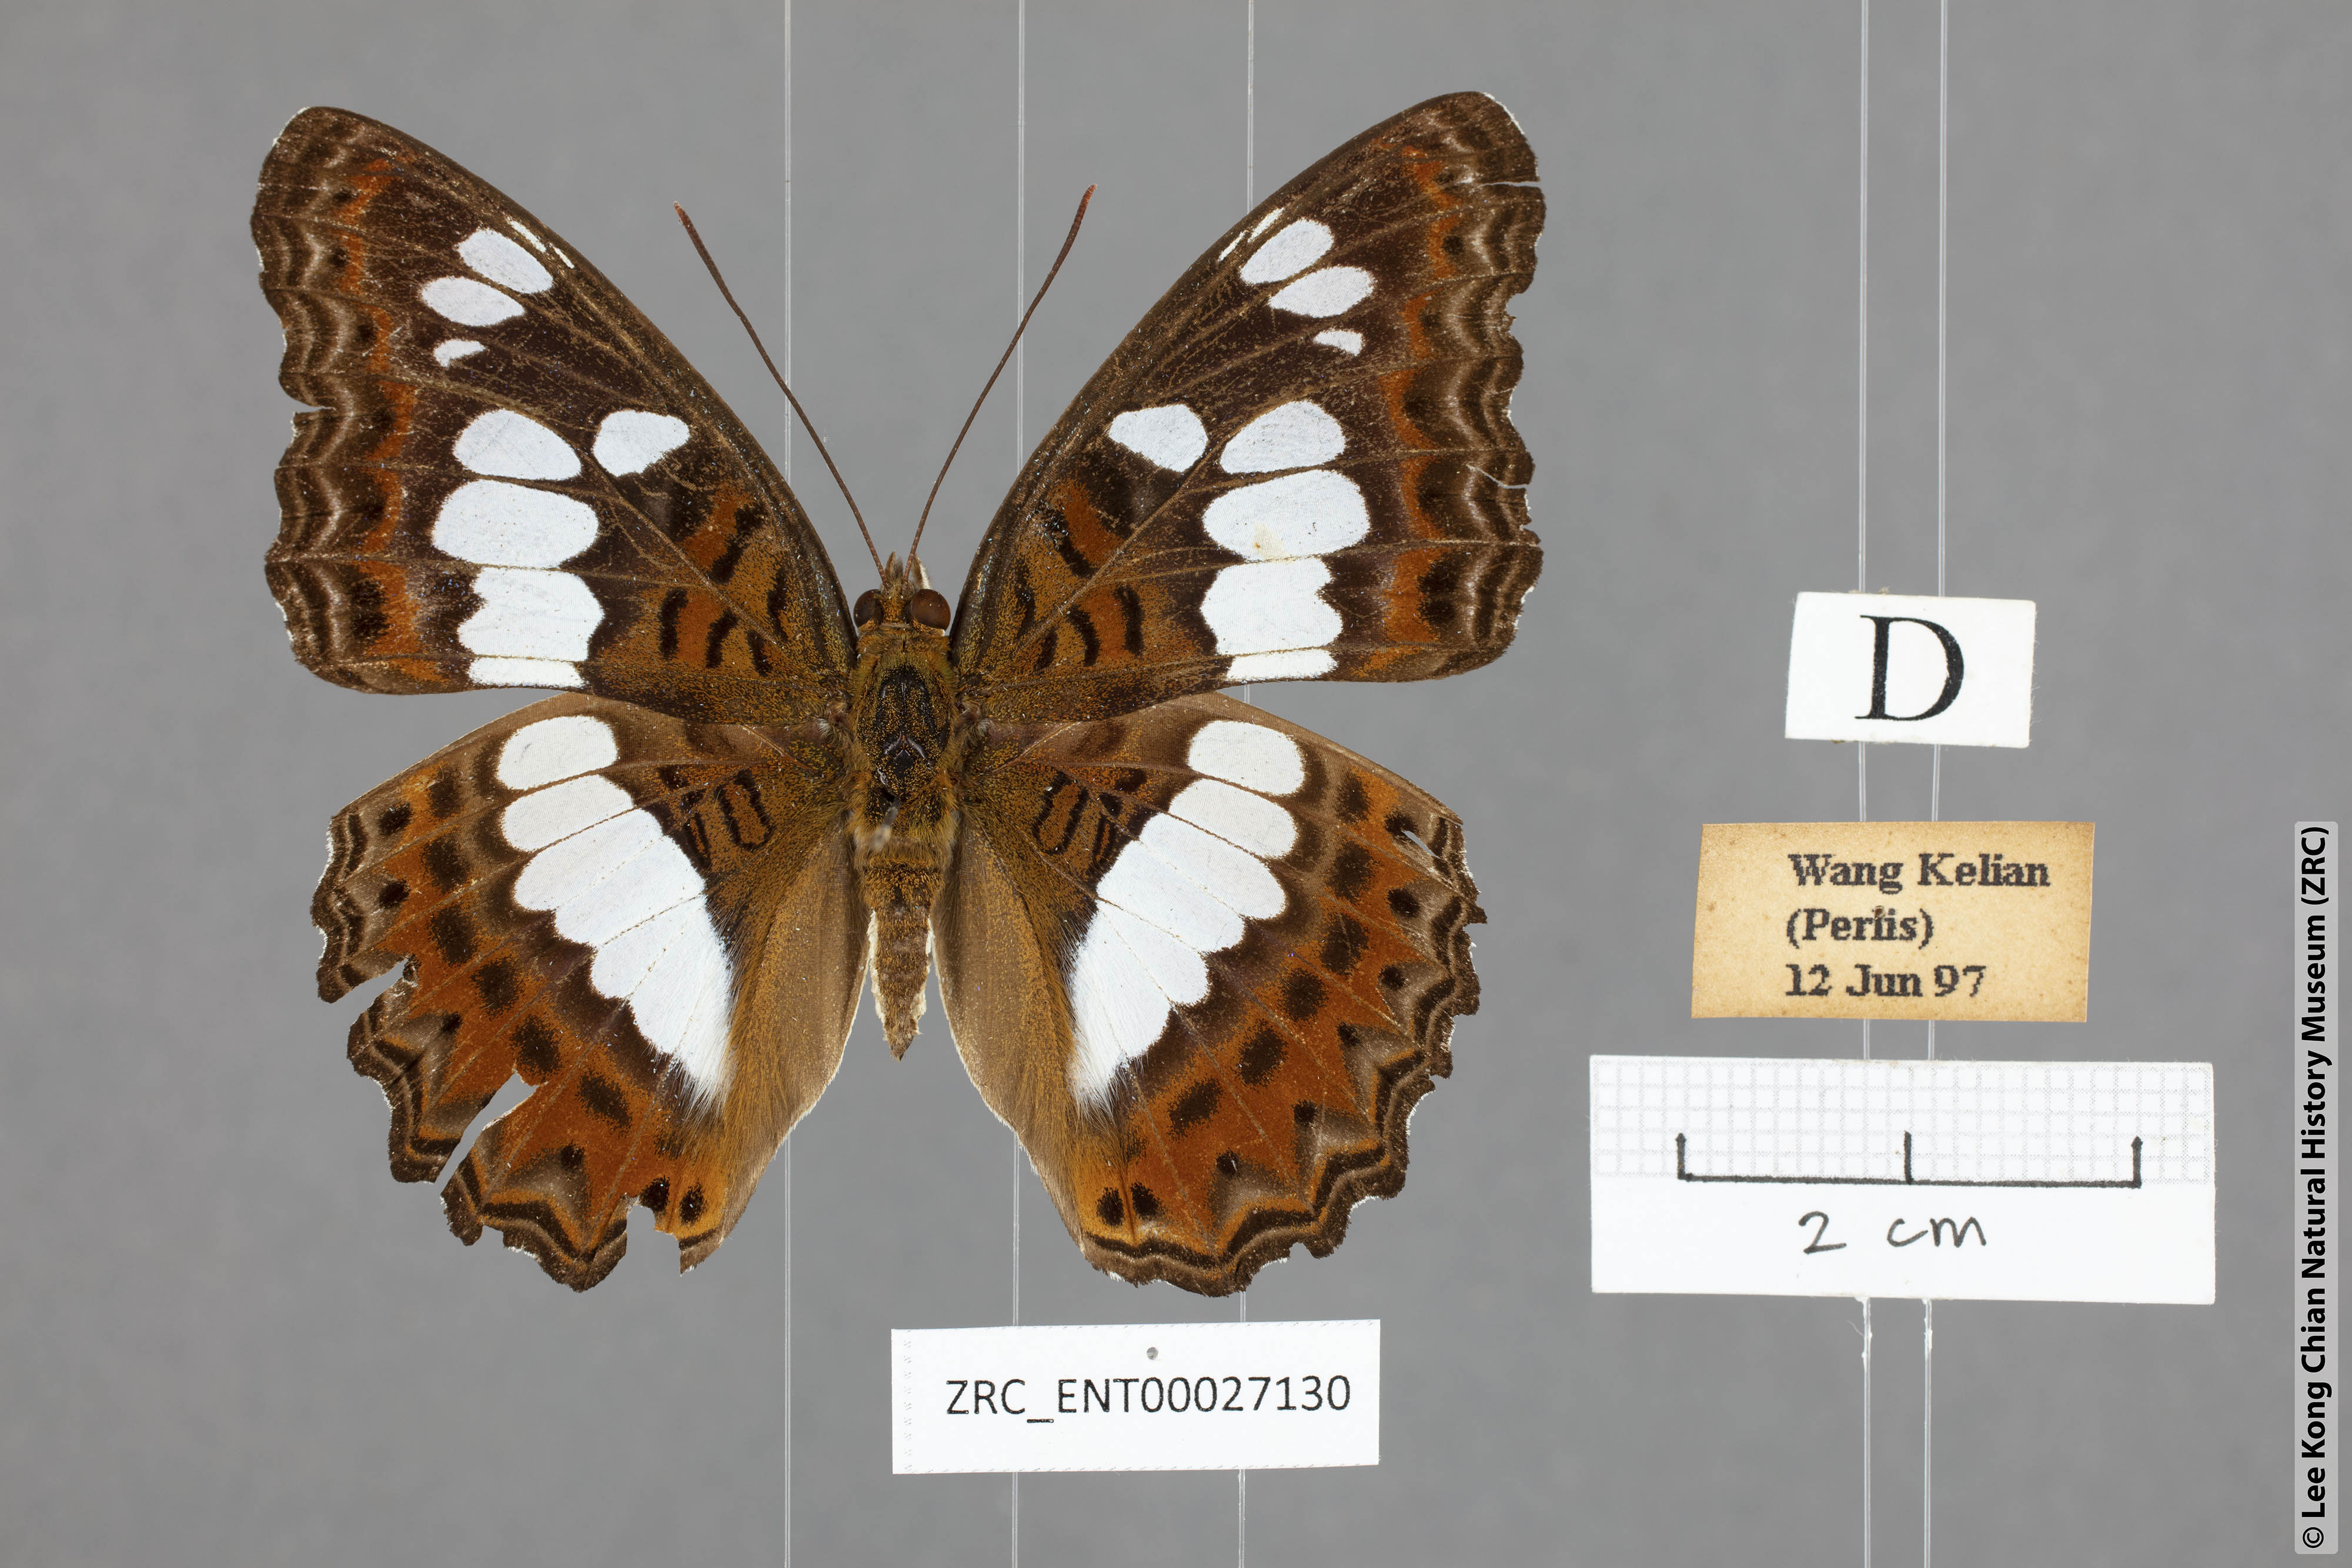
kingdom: Animalia
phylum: Arthropoda
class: Insecta
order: Lepidoptera
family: Nymphalidae
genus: Limenitis
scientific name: Limenitis Moduza procris
